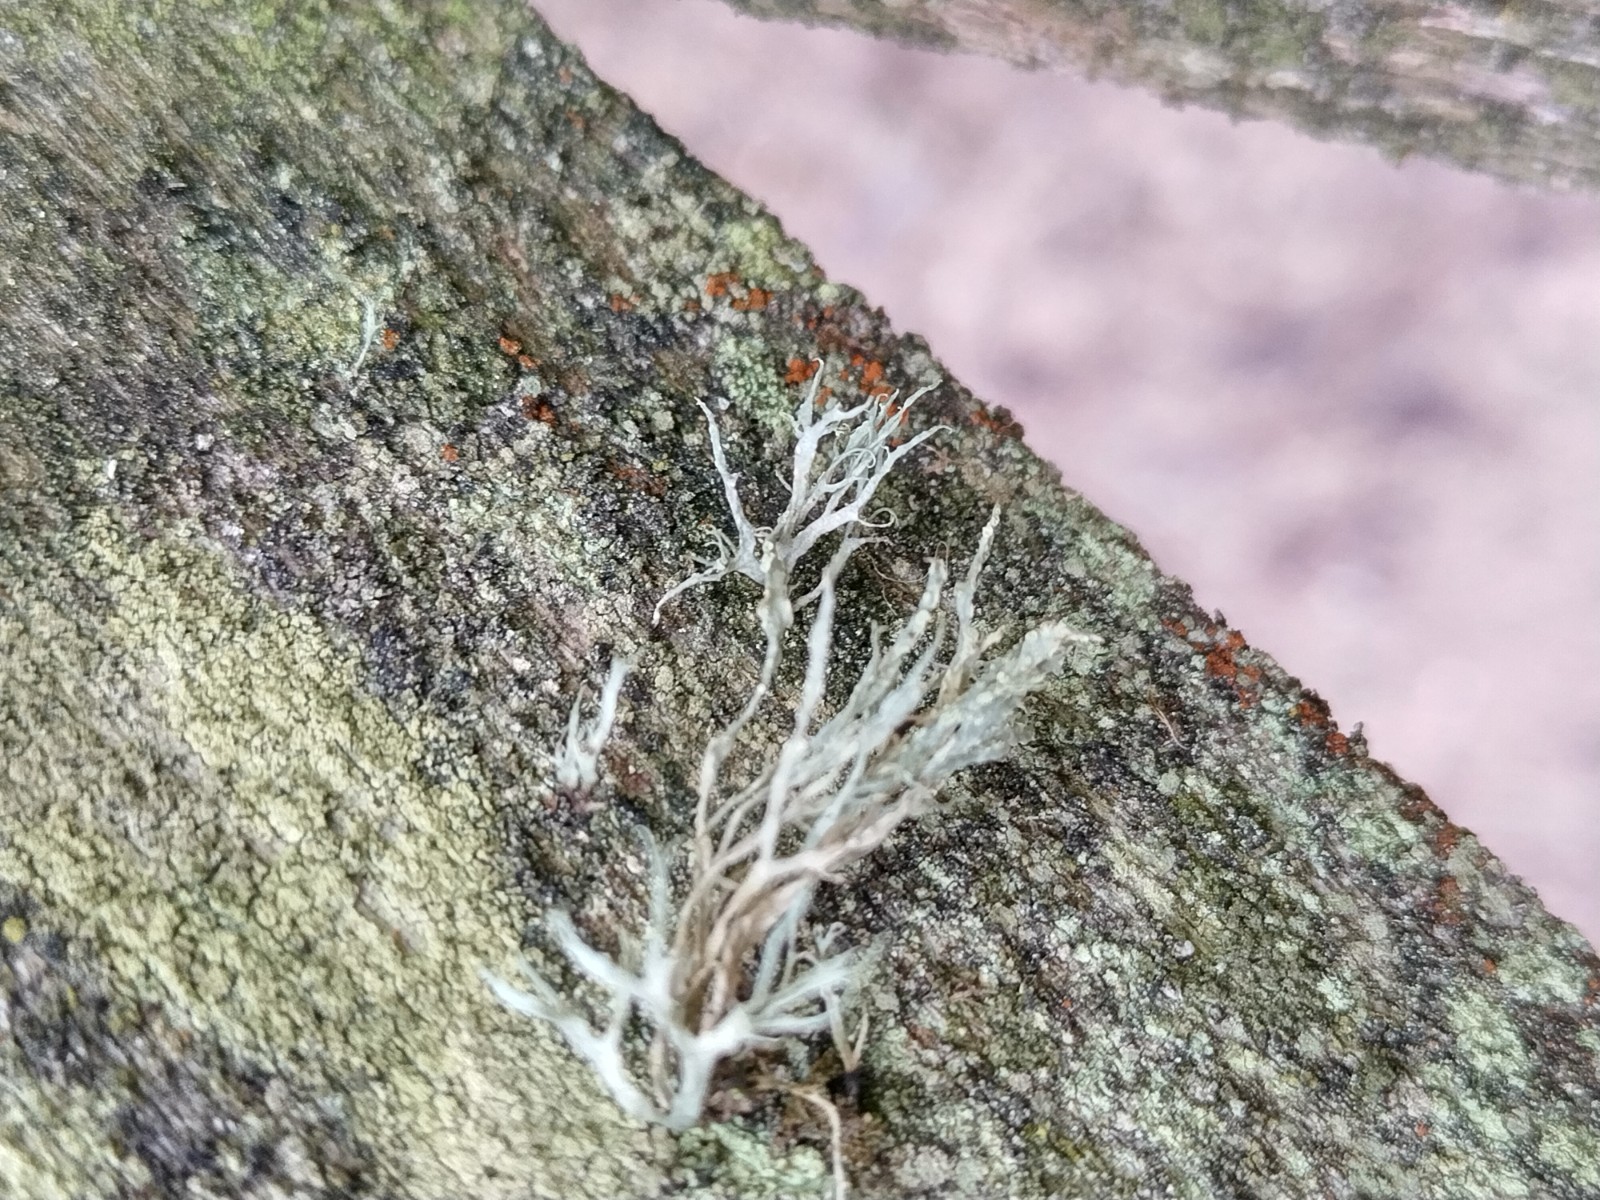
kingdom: Fungi
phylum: Ascomycota
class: Lecanoromycetes
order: Lecanorales
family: Ramalinaceae
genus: Ramalina
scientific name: Ramalina farinacea
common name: melet grenlav
